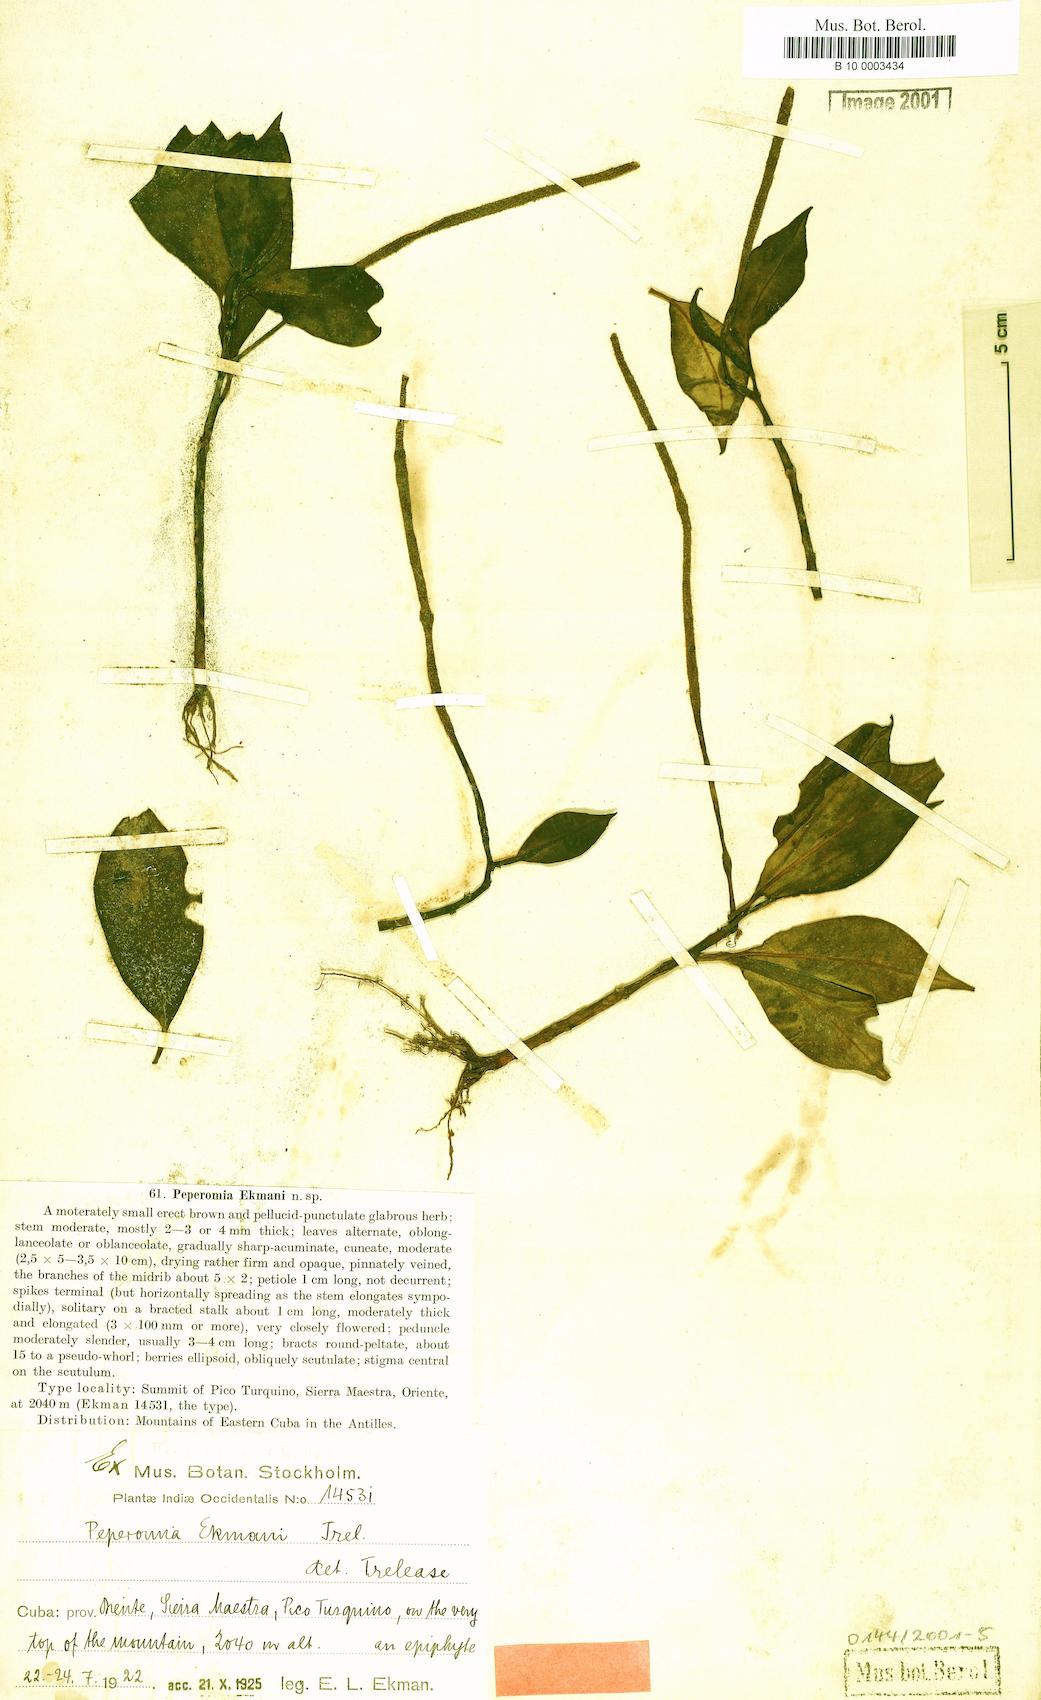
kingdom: Plantae
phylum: Tracheophyta
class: Magnoliopsida
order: Piperales
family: Piperaceae
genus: Peperomia
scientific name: Peperomia acuminata
